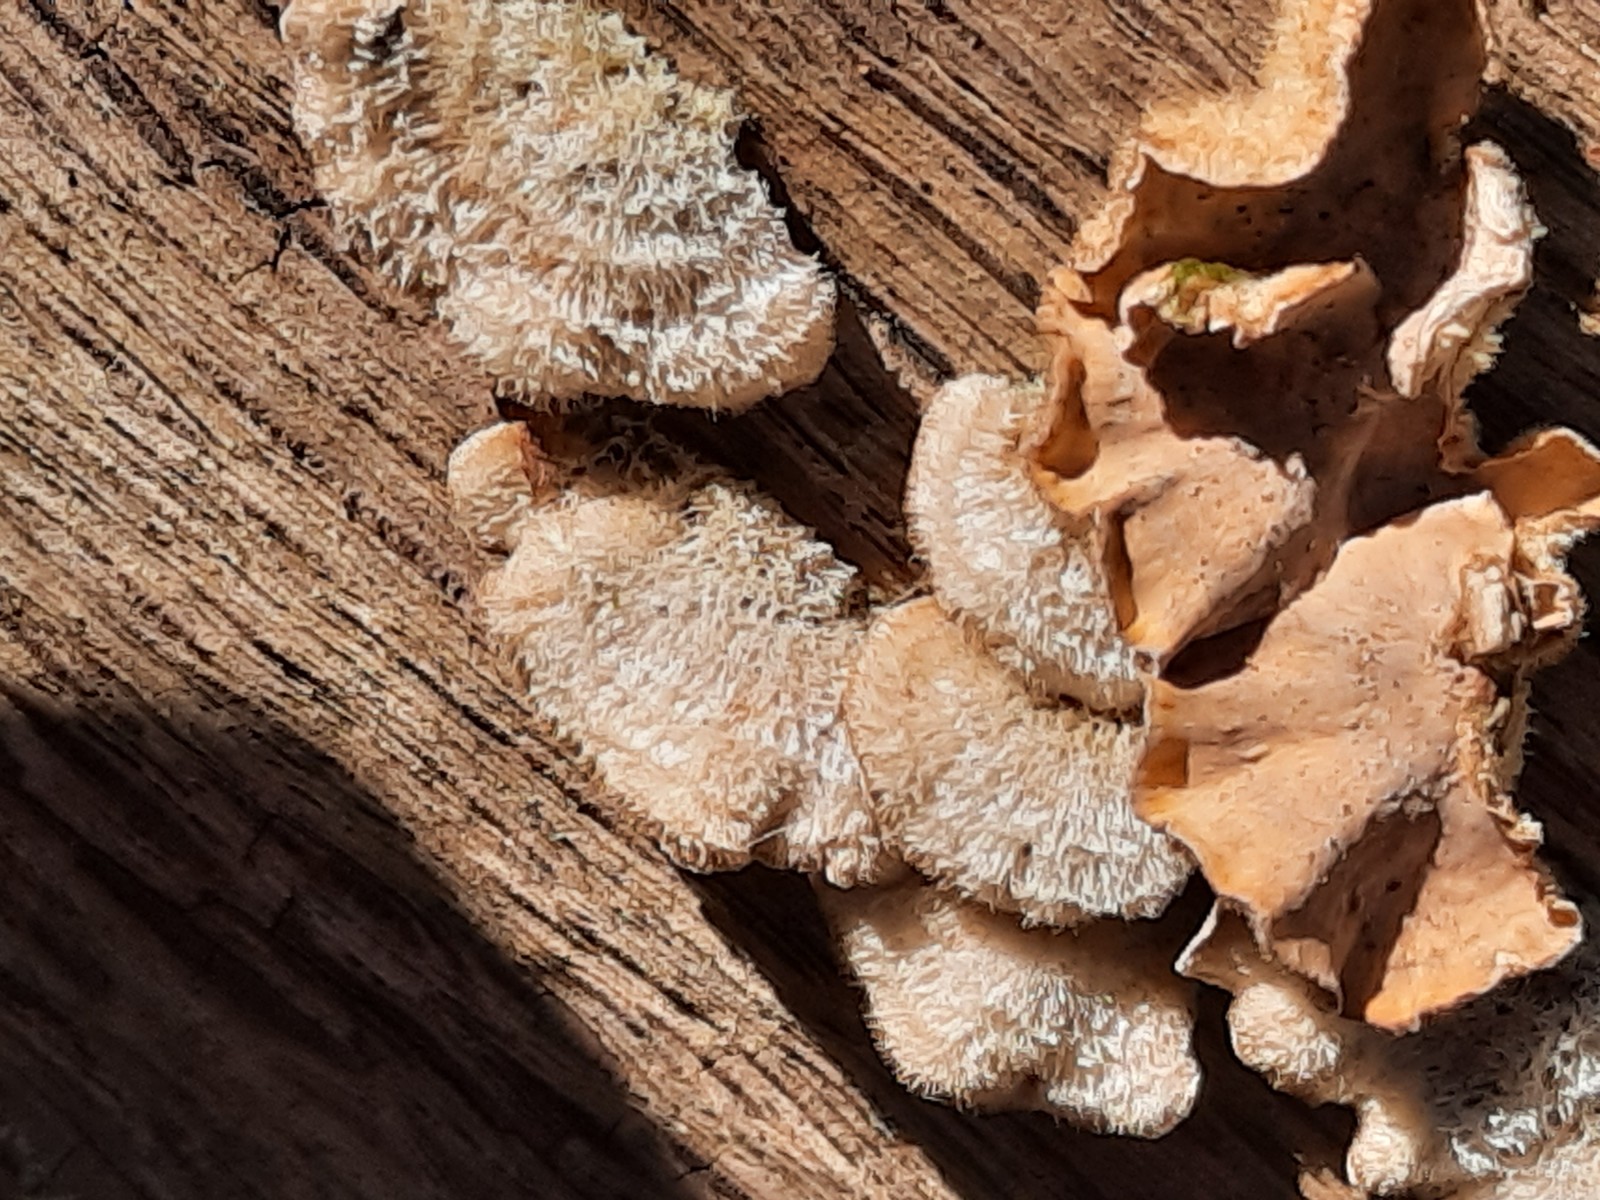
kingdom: Fungi
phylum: Basidiomycota
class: Agaricomycetes
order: Russulales
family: Stereaceae
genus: Stereum
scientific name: Stereum hirsutum
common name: håret lædersvamp
